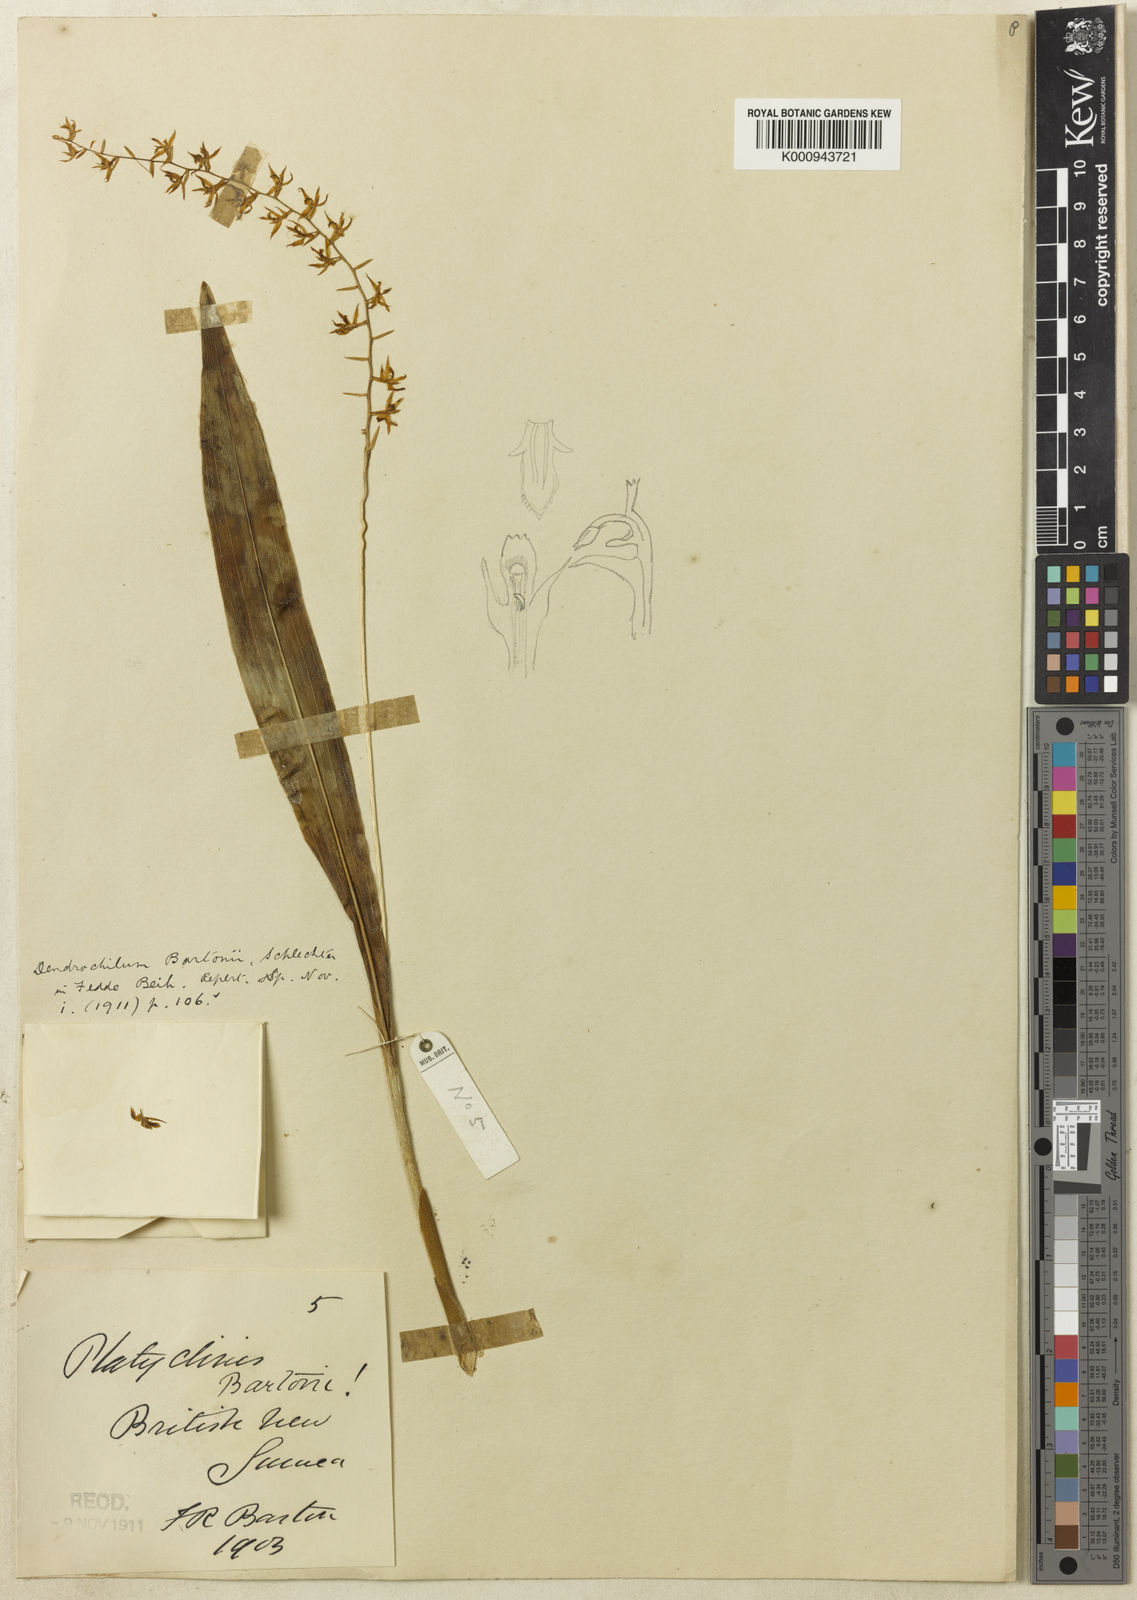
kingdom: Plantae
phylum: Tracheophyta
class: Liliopsida
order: Asparagales
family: Orchidaceae
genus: Coelogyne
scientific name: Coelogyne bracteosa
